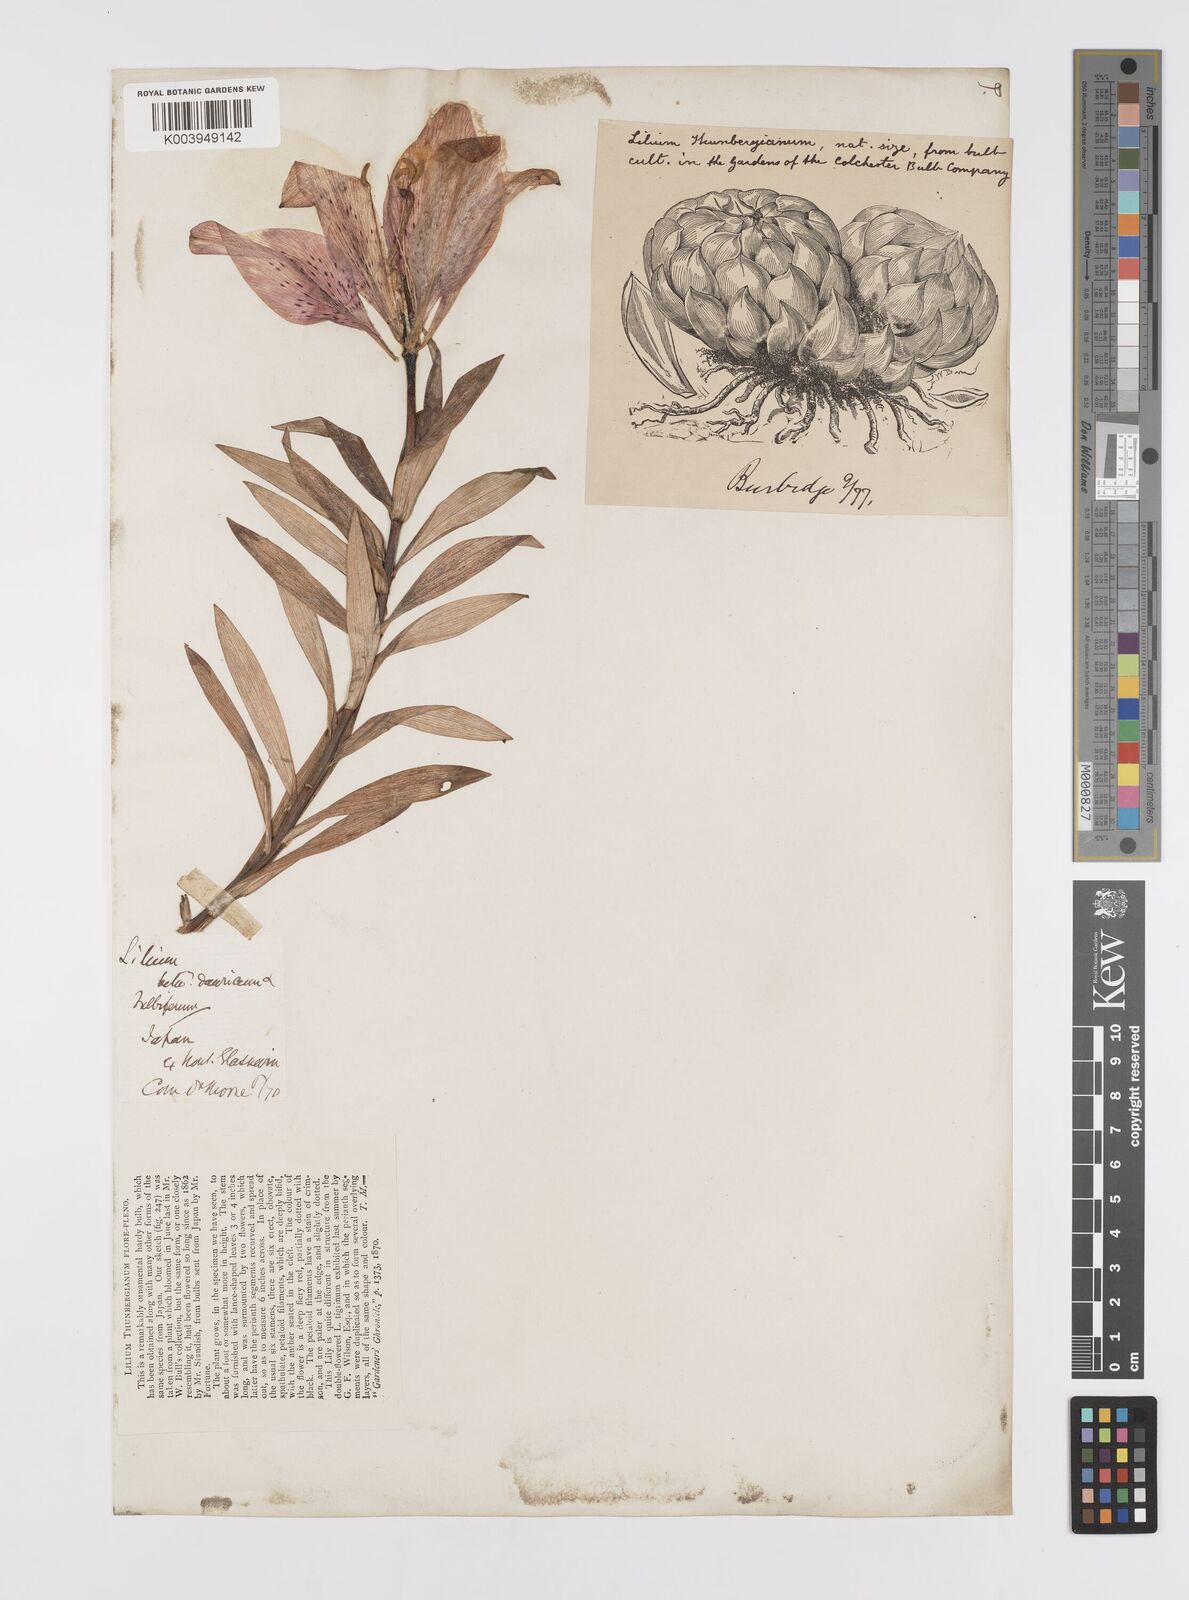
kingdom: Plantae
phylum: Tracheophyta
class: Liliopsida
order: Liliales
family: Liliaceae
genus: Lilium
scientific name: Lilium pensylvanicum
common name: Candlestick lily
